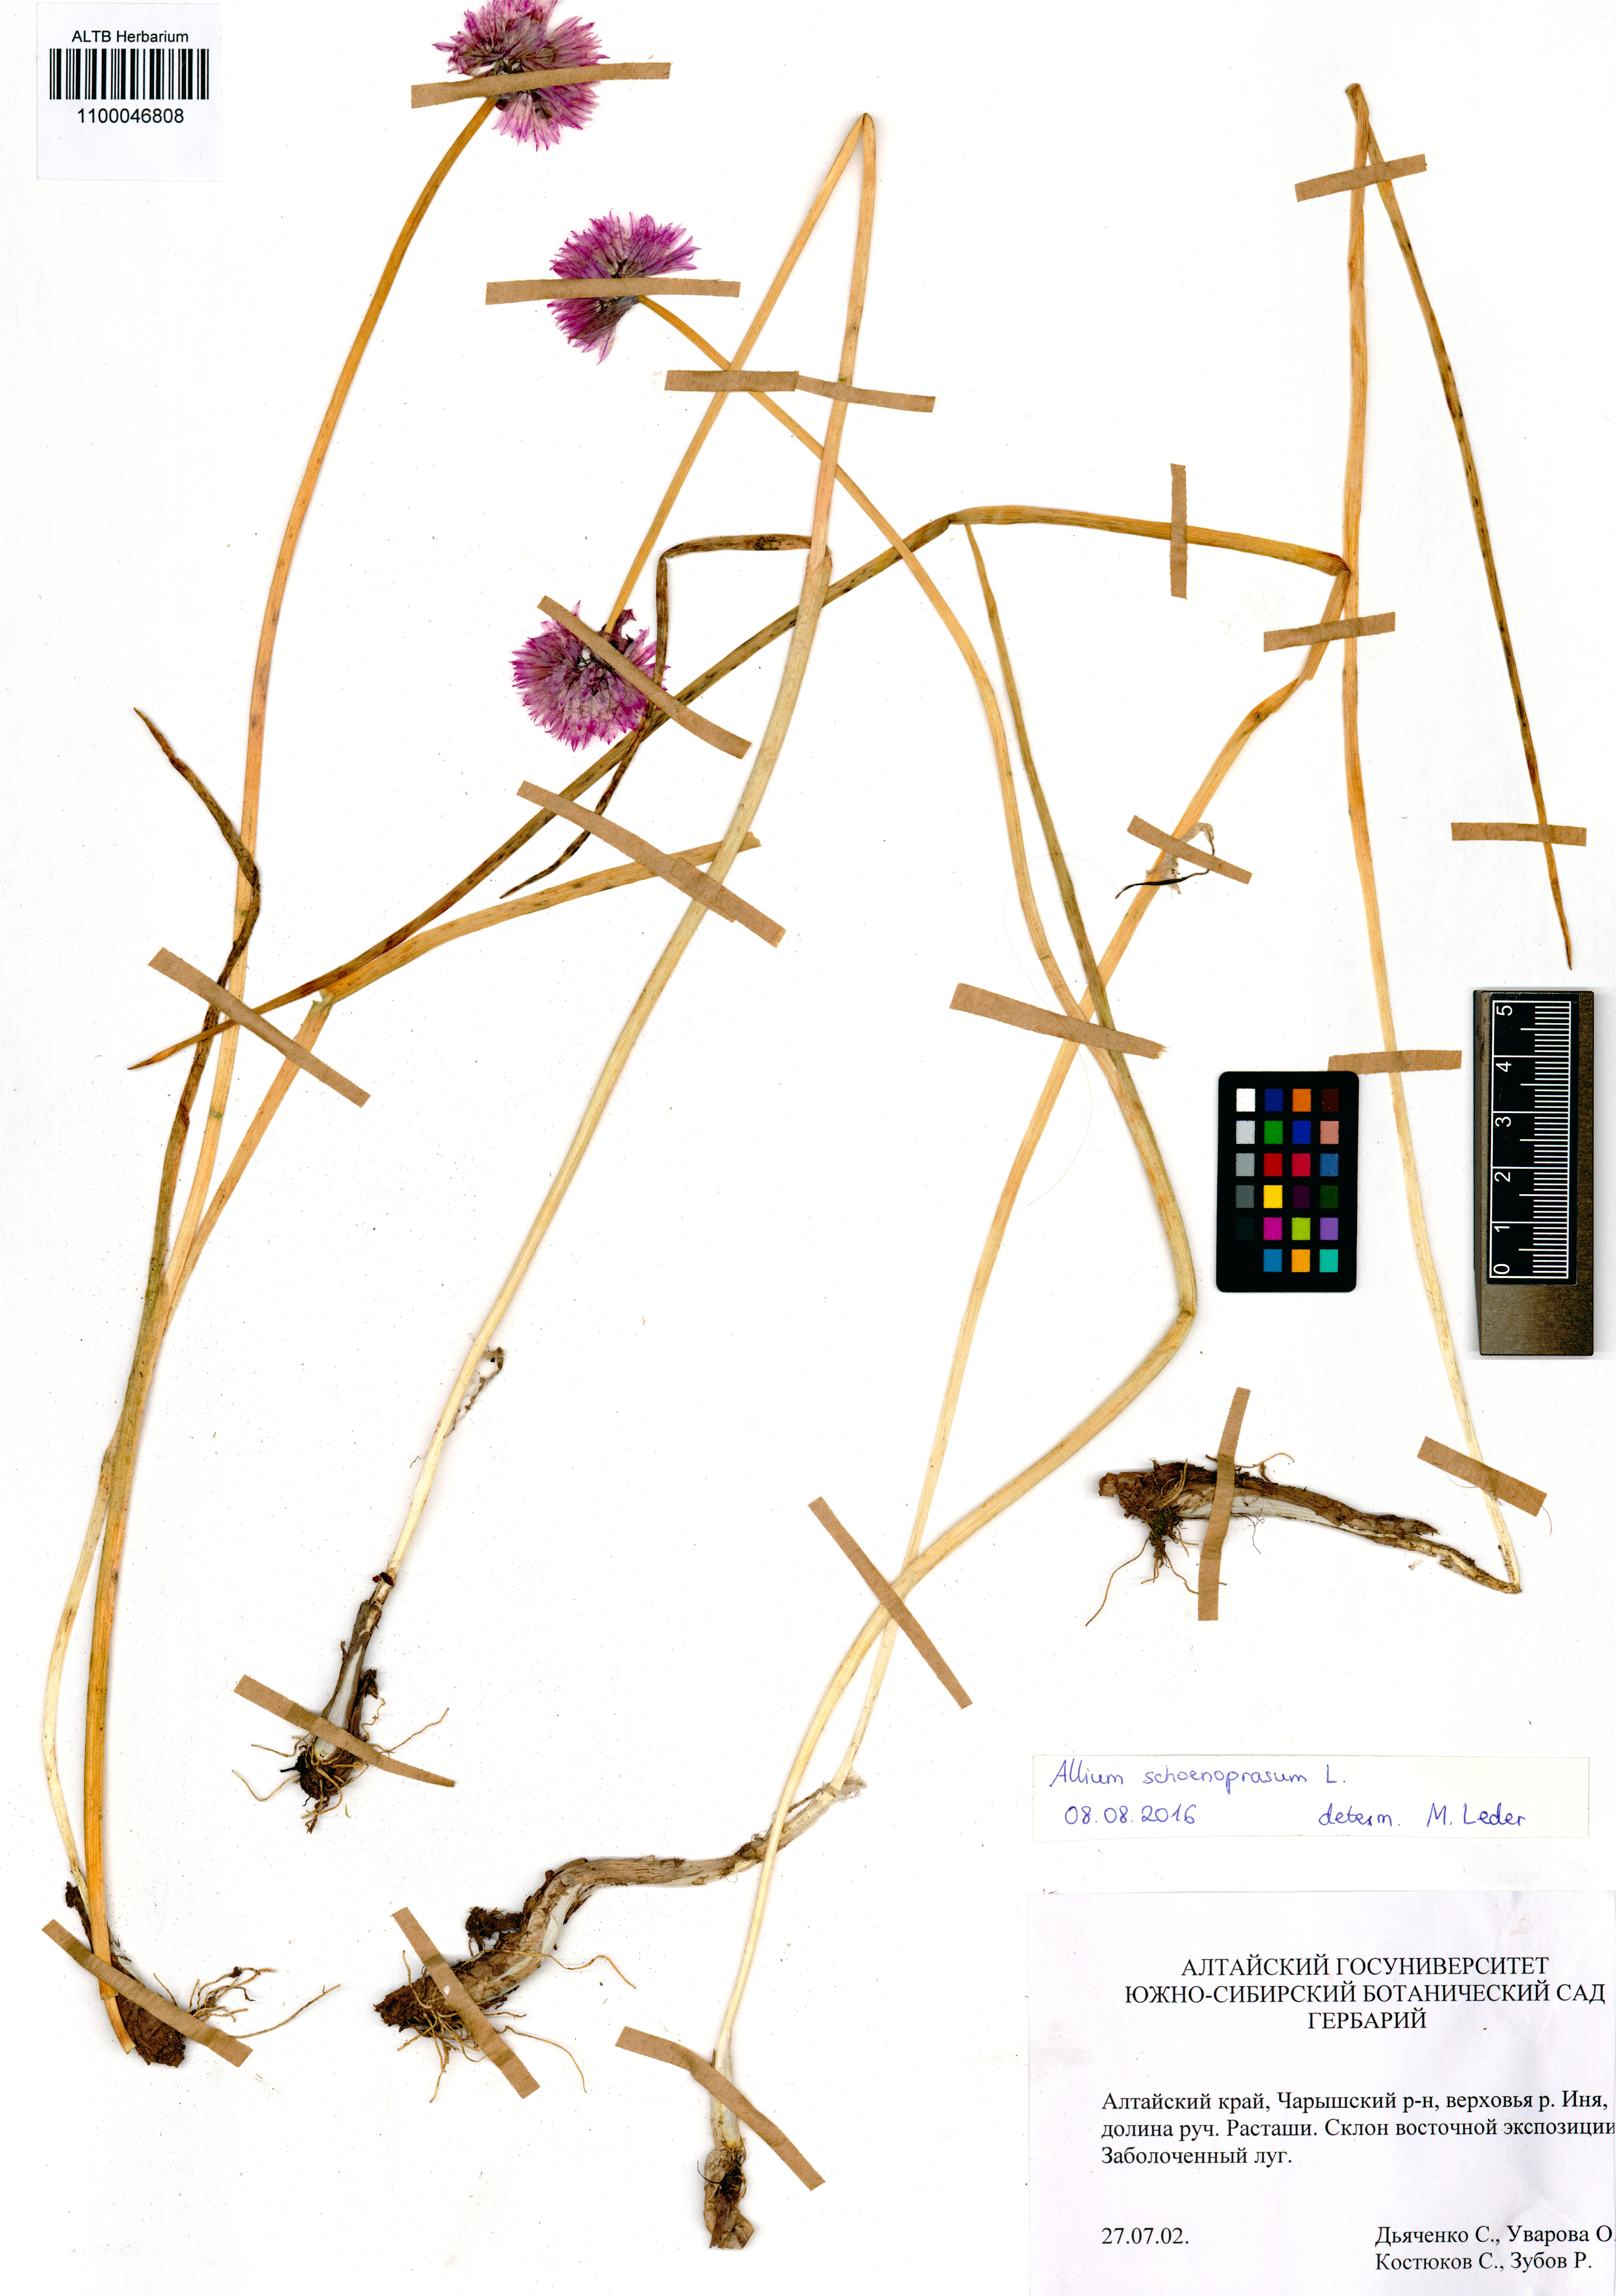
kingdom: Plantae
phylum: Tracheophyta
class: Liliopsida
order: Asparagales
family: Amaryllidaceae
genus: Allium
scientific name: Allium schoenoprasum
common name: Chives
